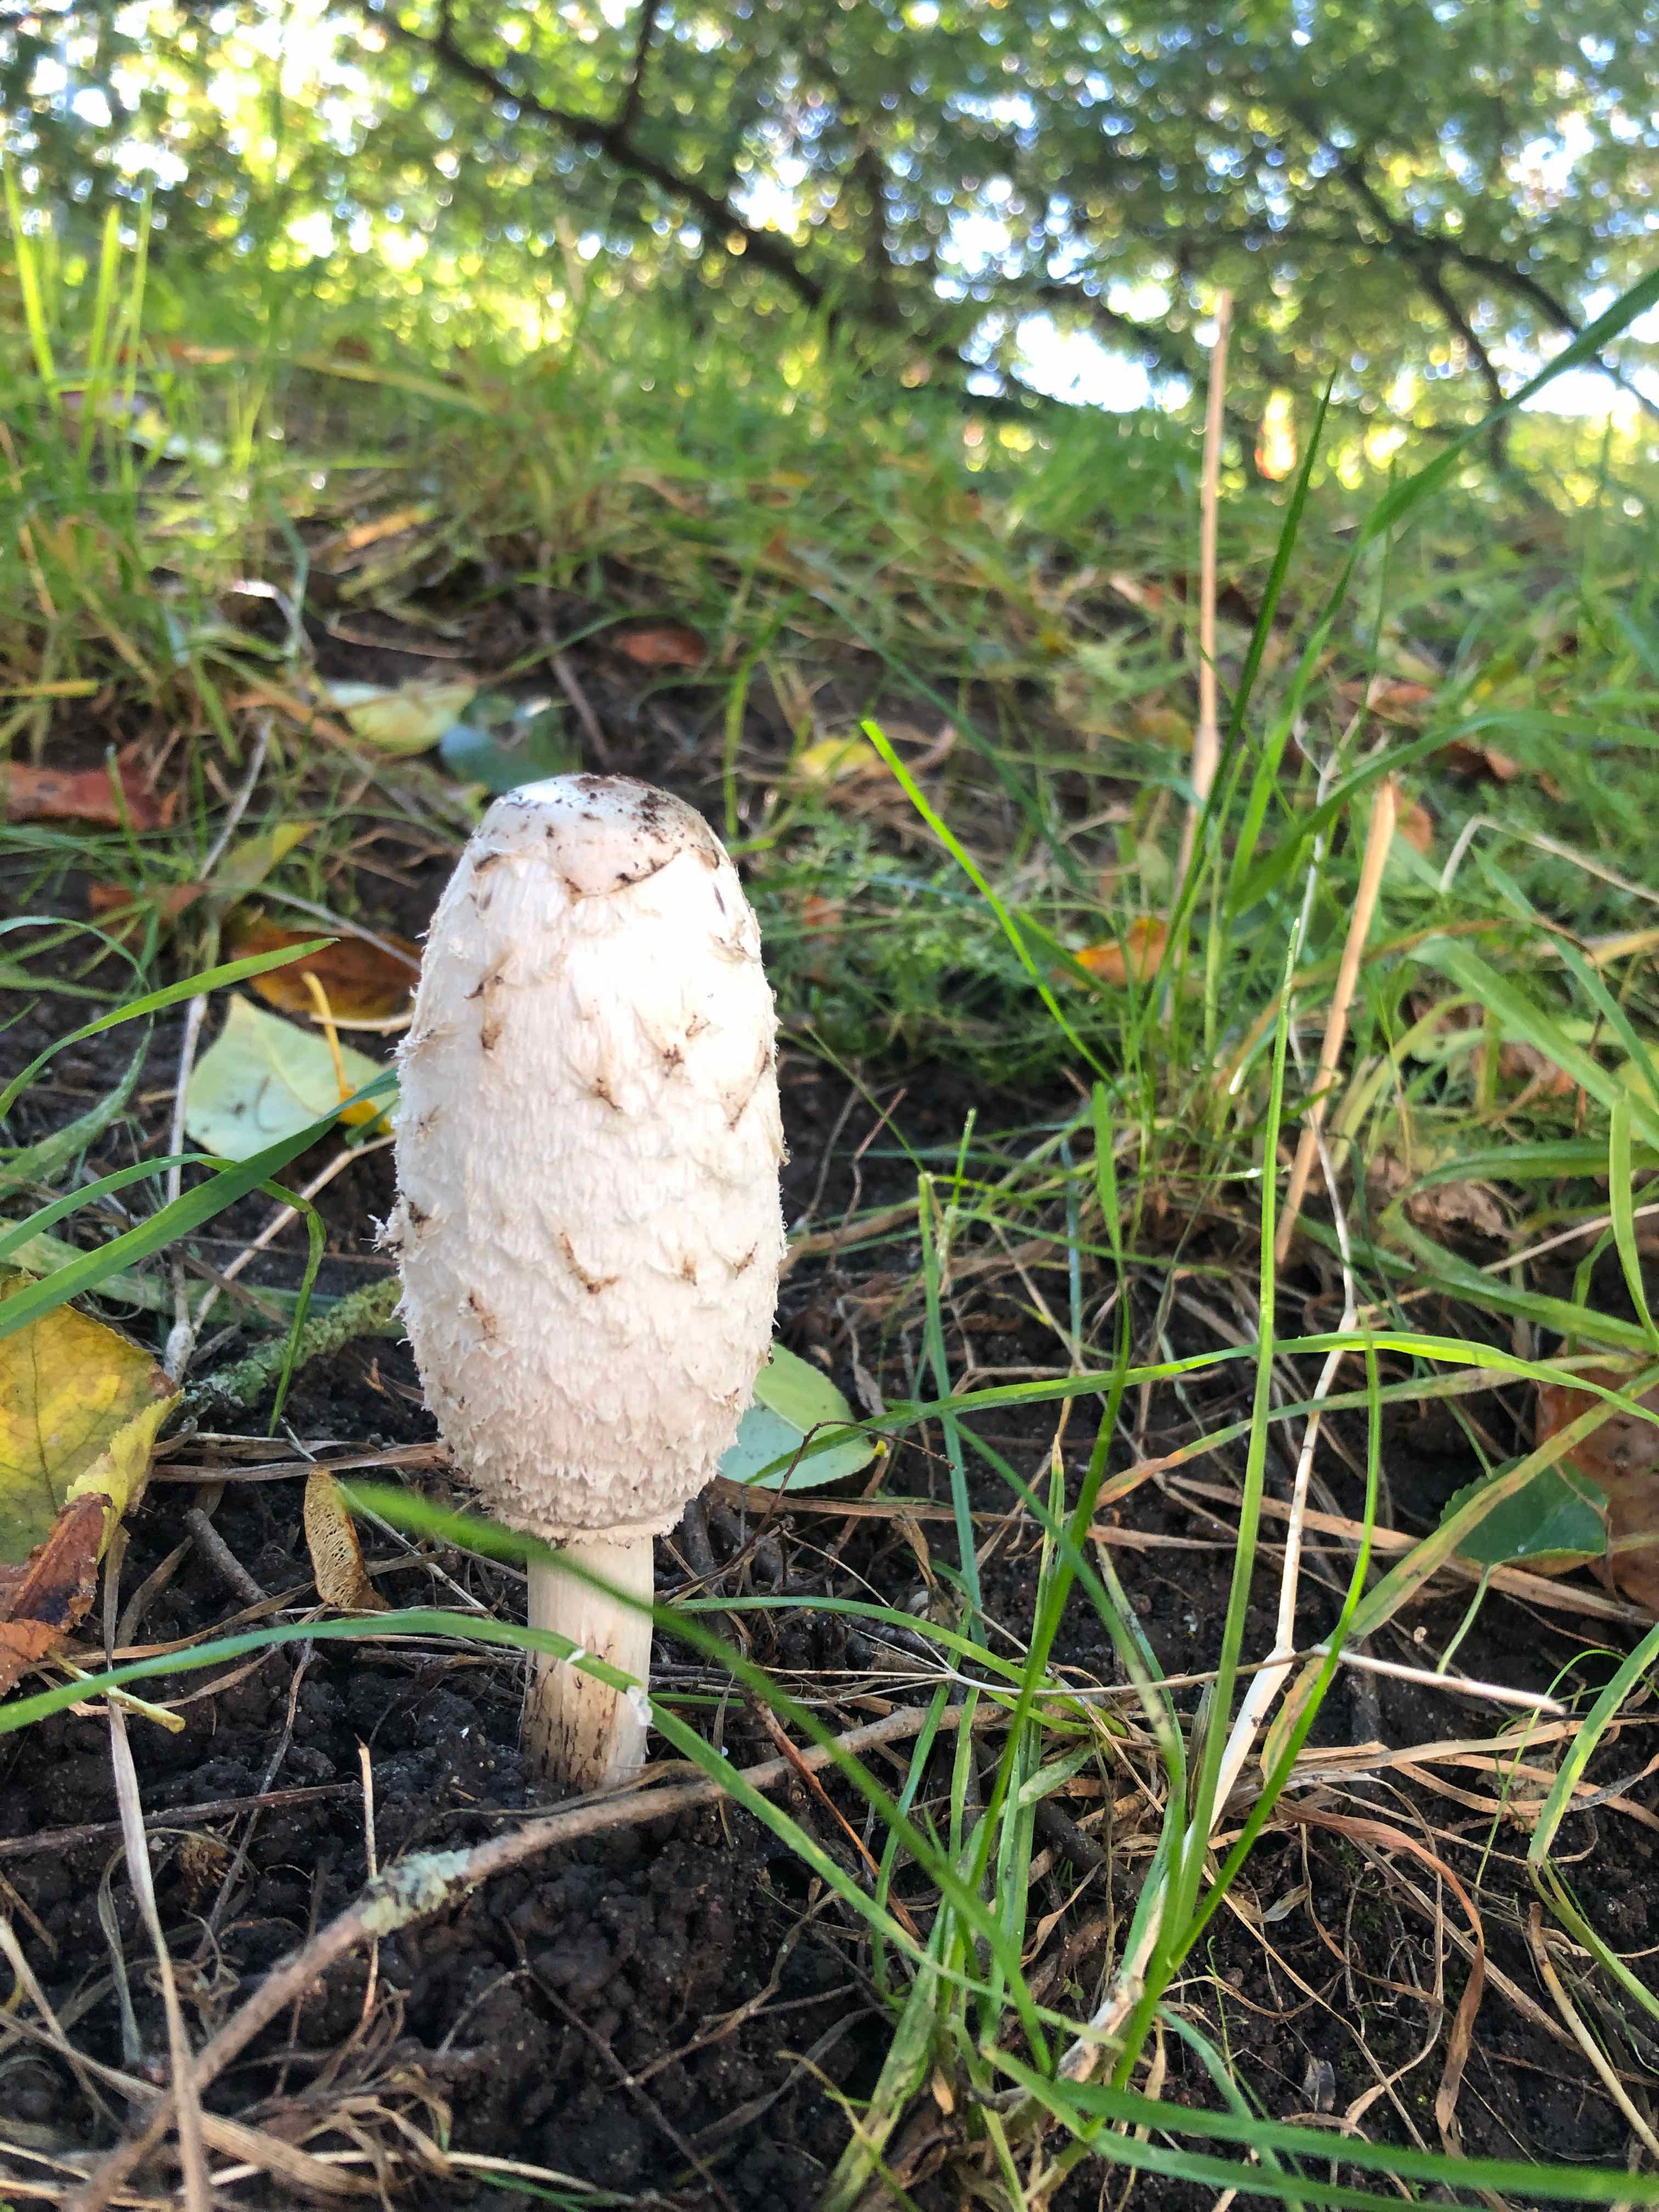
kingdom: Fungi
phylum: Basidiomycota
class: Agaricomycetes
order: Agaricales
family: Agaricaceae
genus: Coprinus
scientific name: Coprinus comatus
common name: stor parykhat
